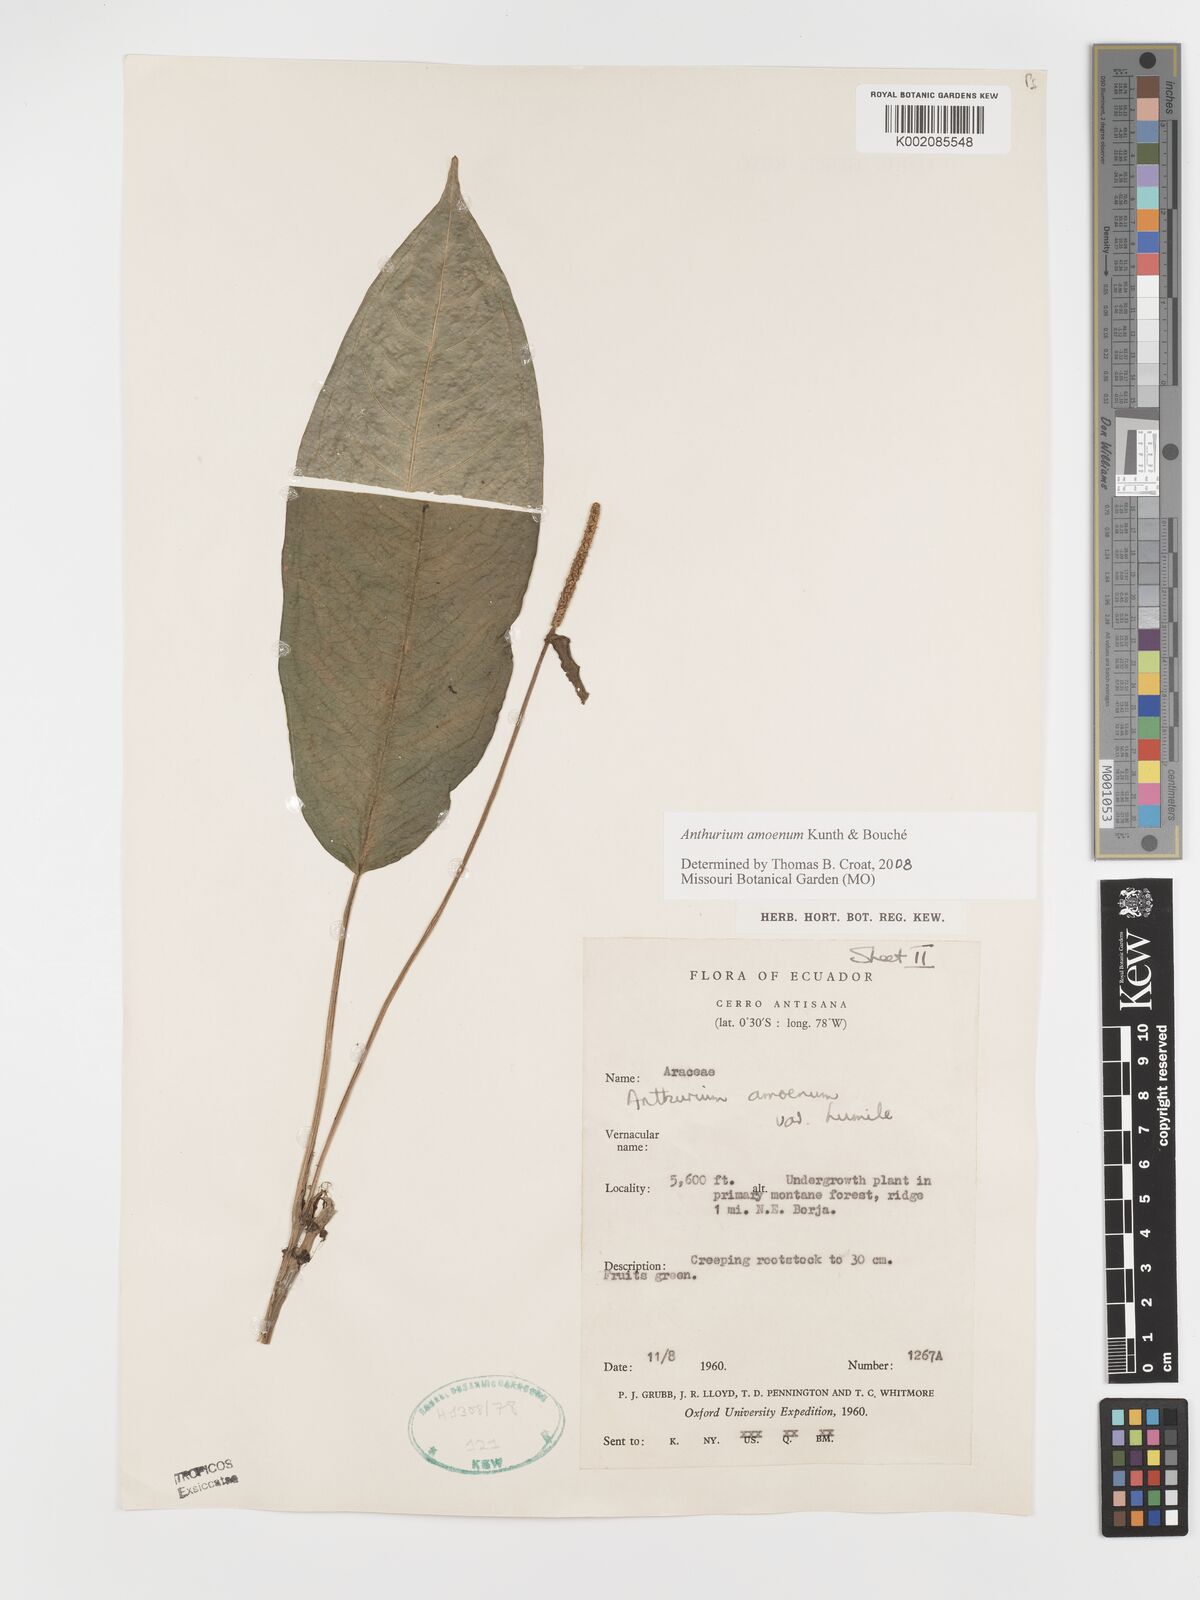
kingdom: Plantae
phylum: Tracheophyta
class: Liliopsida
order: Alismatales
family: Araceae
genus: Anthurium
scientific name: Anthurium amoenum
